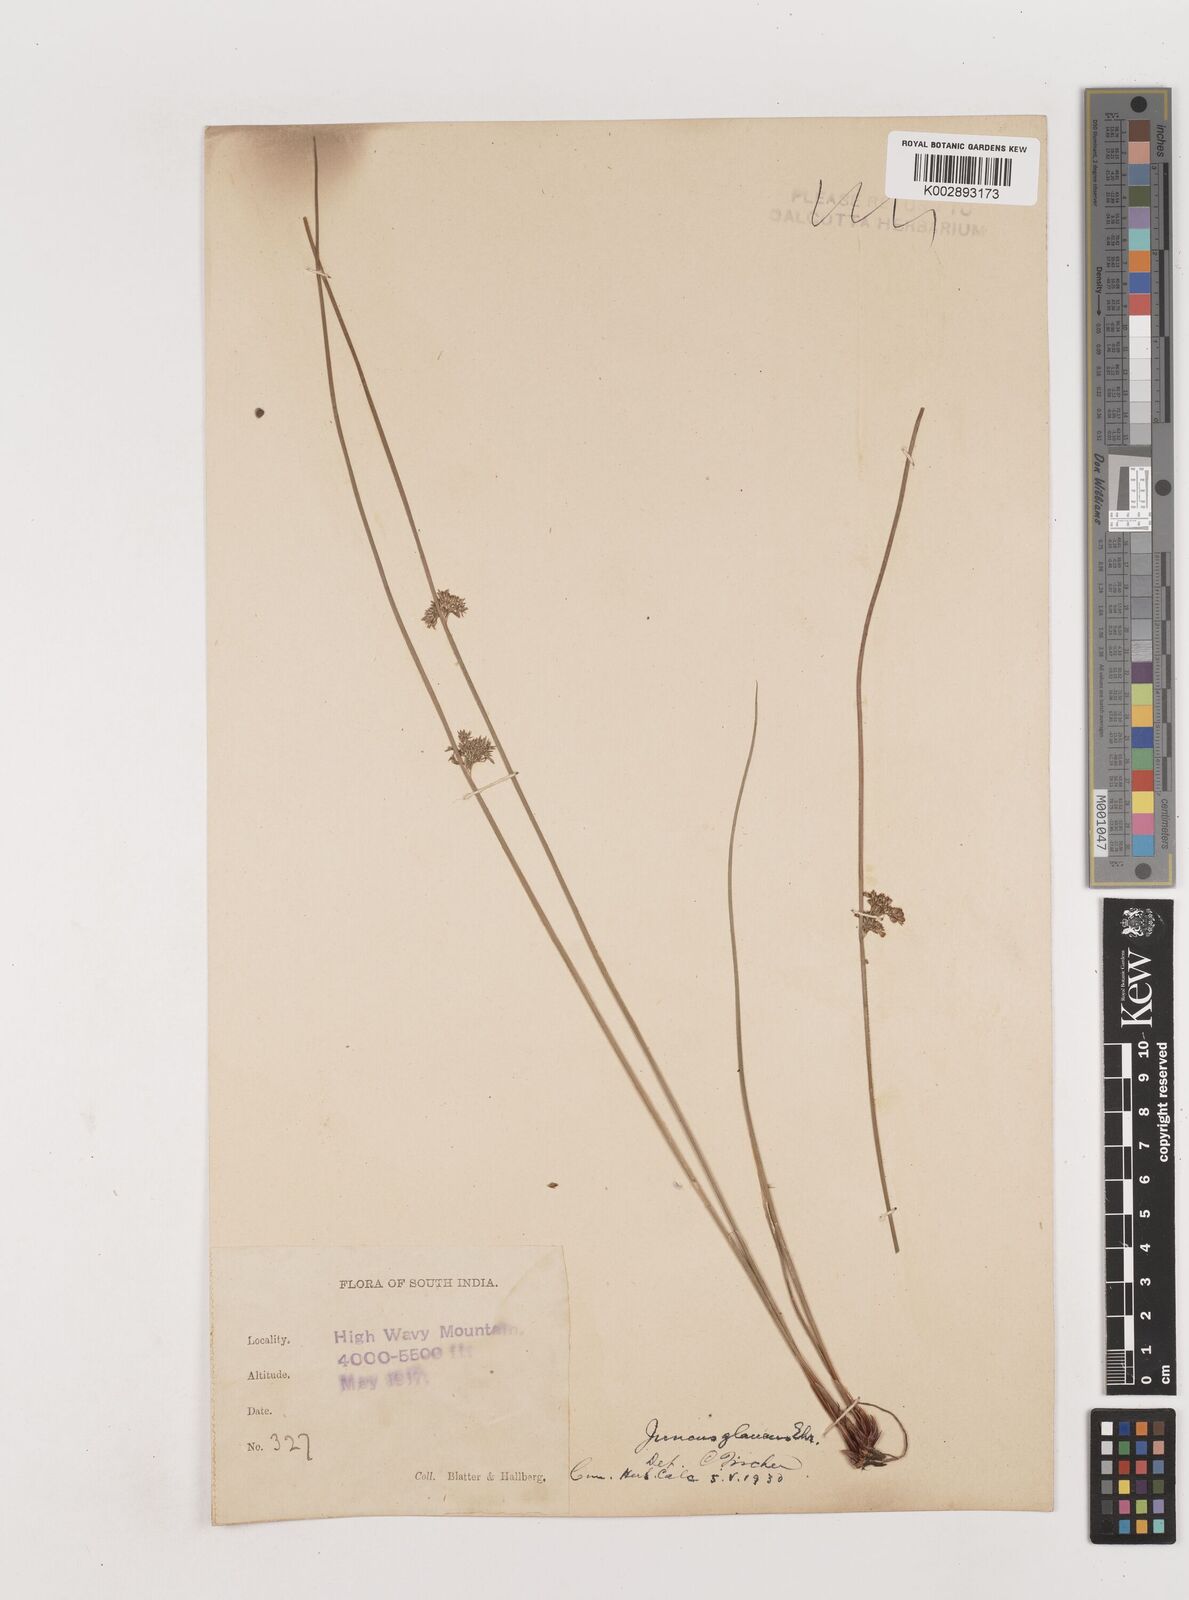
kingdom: Plantae
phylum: Tracheophyta
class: Liliopsida
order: Poales
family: Juncaceae
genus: Juncus
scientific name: Juncus inflexus
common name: Hard rush
